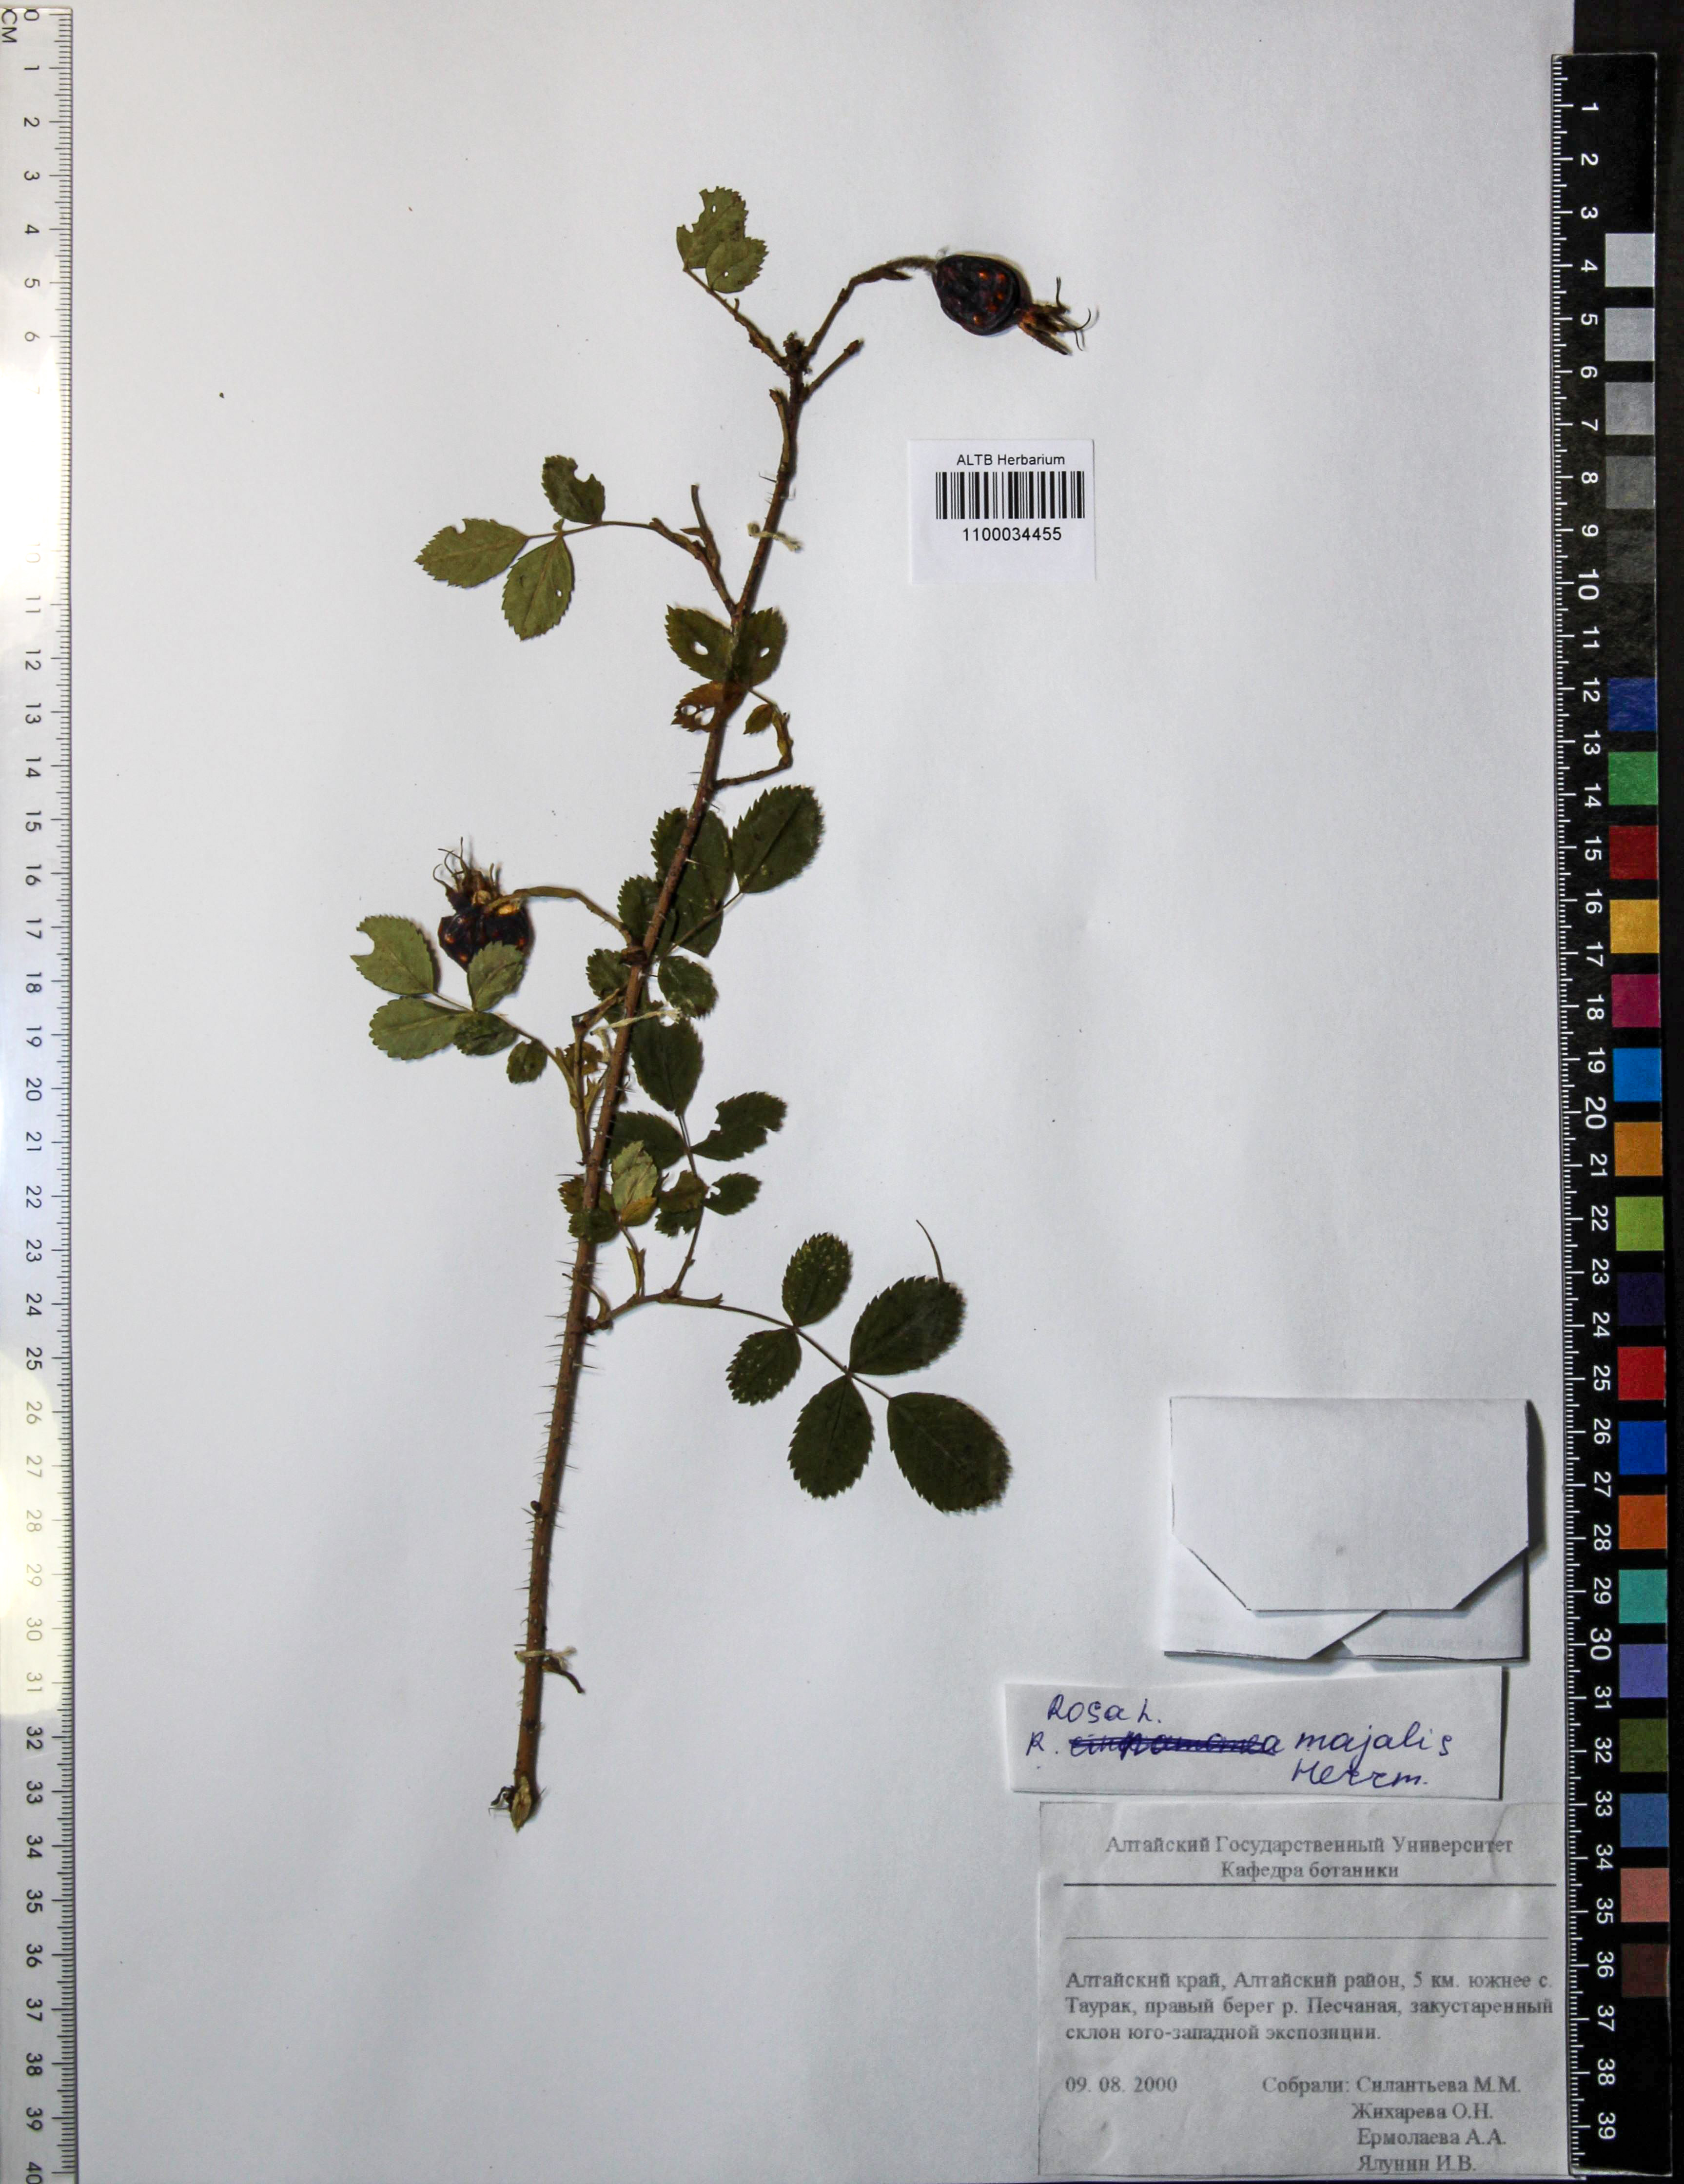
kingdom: Plantae
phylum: Tracheophyta
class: Magnoliopsida
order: Rosales
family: Rosaceae
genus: Rosa
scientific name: Rosa majalis
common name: Cinnamon rose
